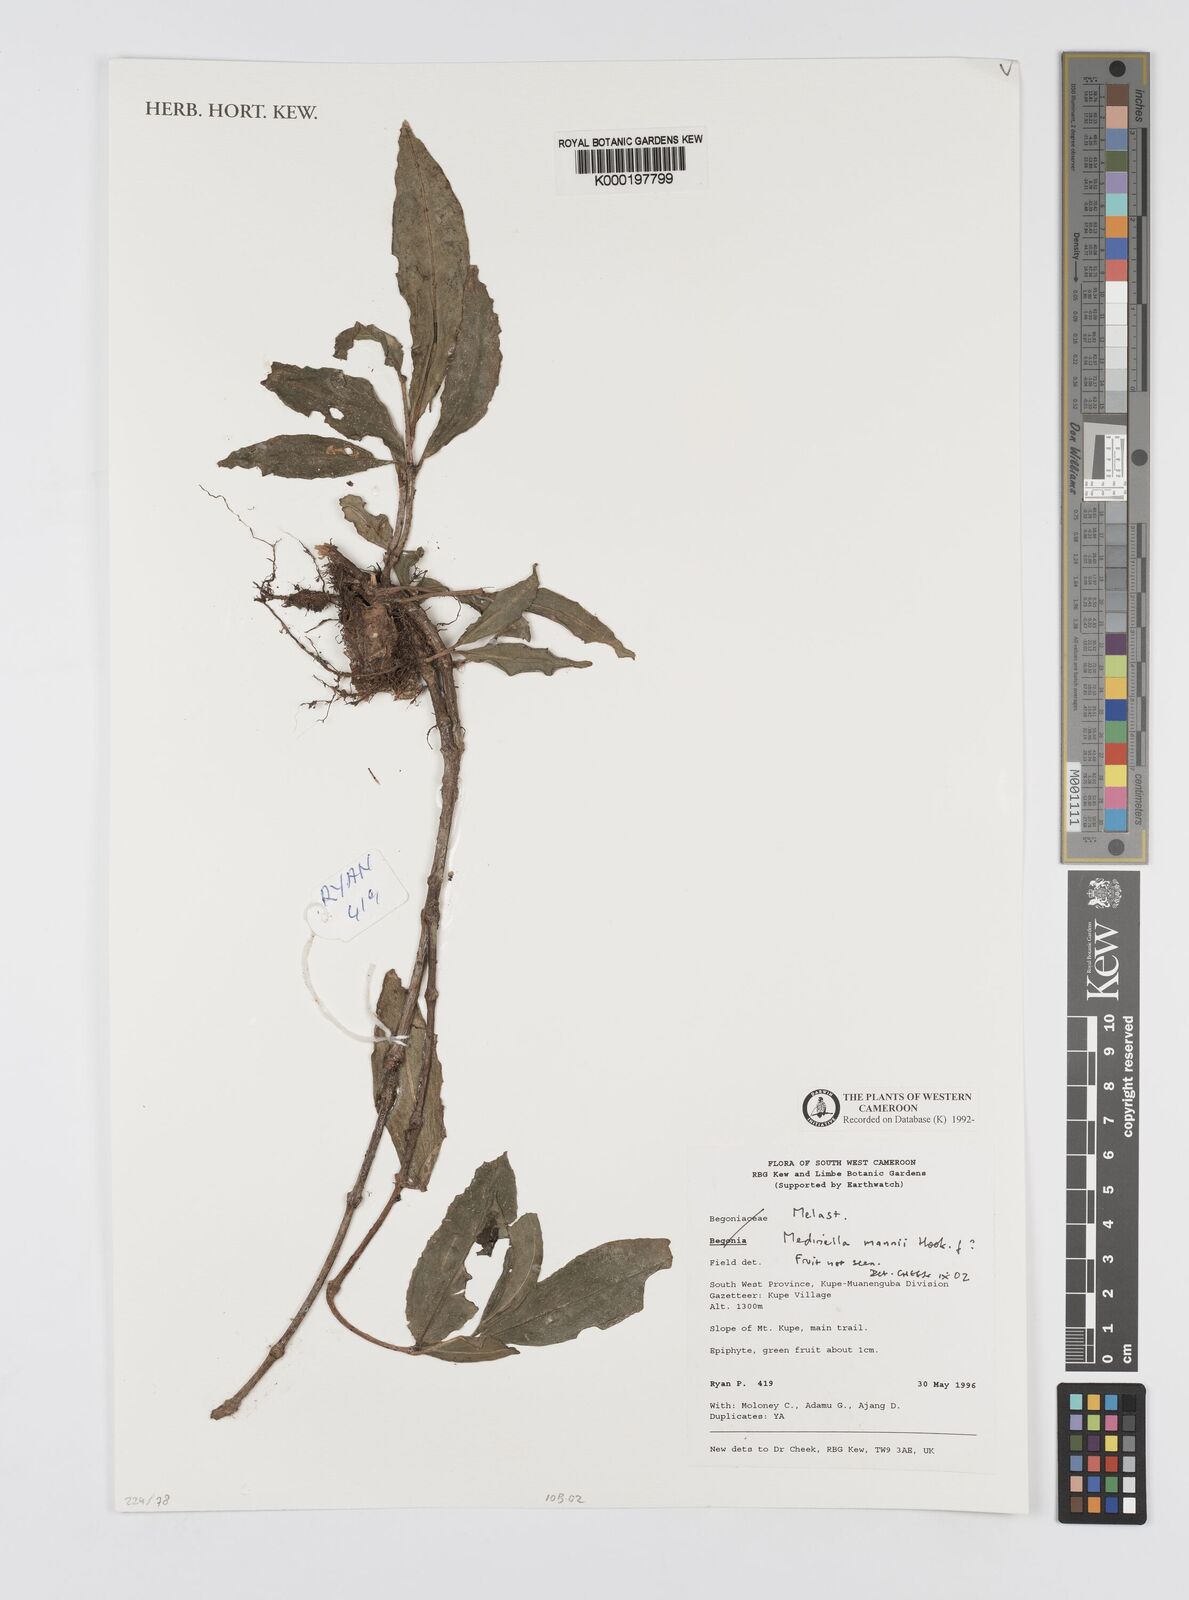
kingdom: Plantae
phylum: Tracheophyta
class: Magnoliopsida
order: Myrtales
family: Melastomataceae
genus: Medinilla
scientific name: Medinilla mannii
